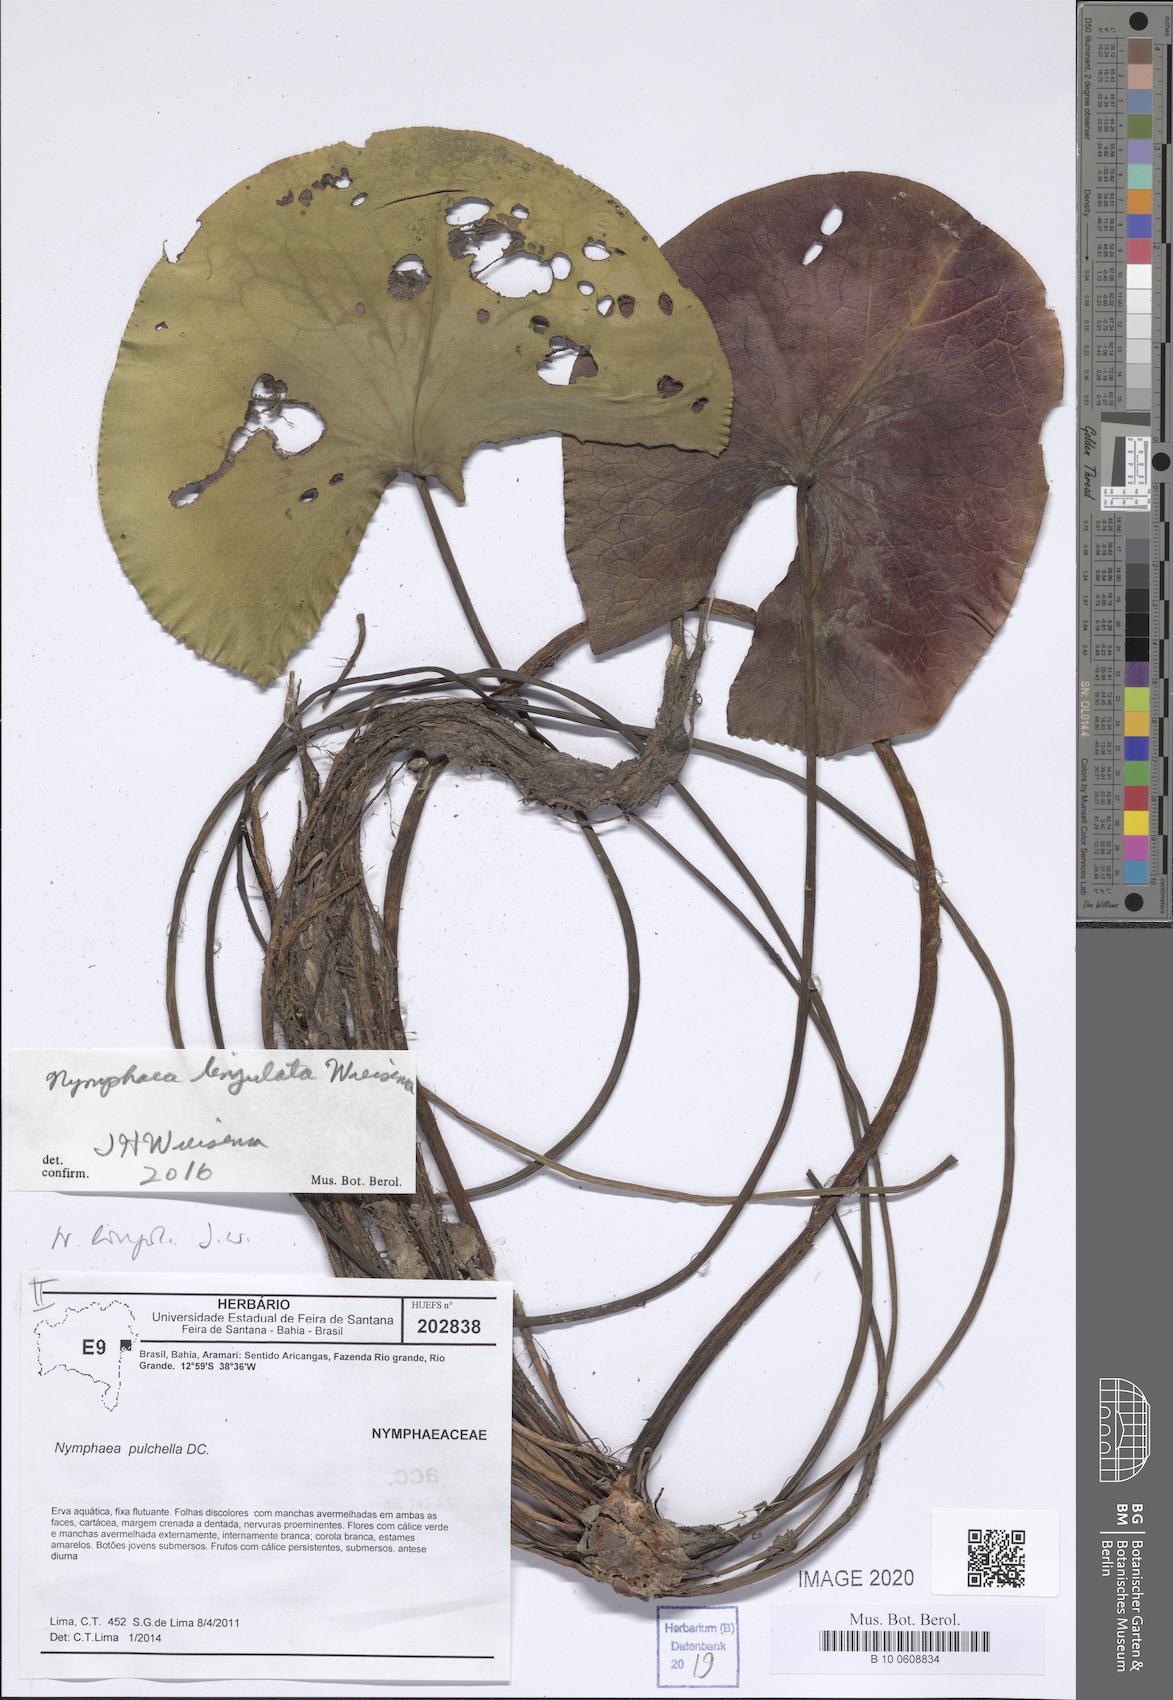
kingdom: Plantae
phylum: Tracheophyta
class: Magnoliopsida
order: Nymphaeales
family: Nymphaeaceae
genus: Nymphaea
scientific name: Nymphaea lingulata
